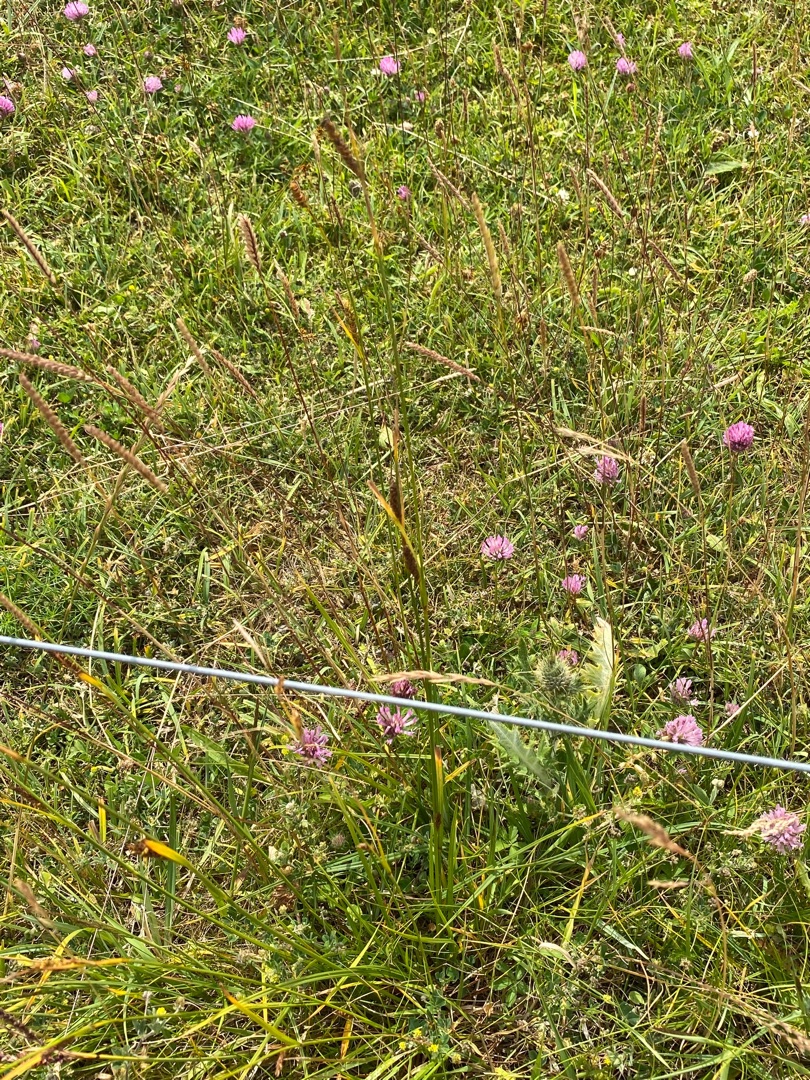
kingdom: Plantae
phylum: Tracheophyta
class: Liliopsida
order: Poales
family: Cyperaceae
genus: Carex
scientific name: Carex flacca
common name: Blågrøn star
